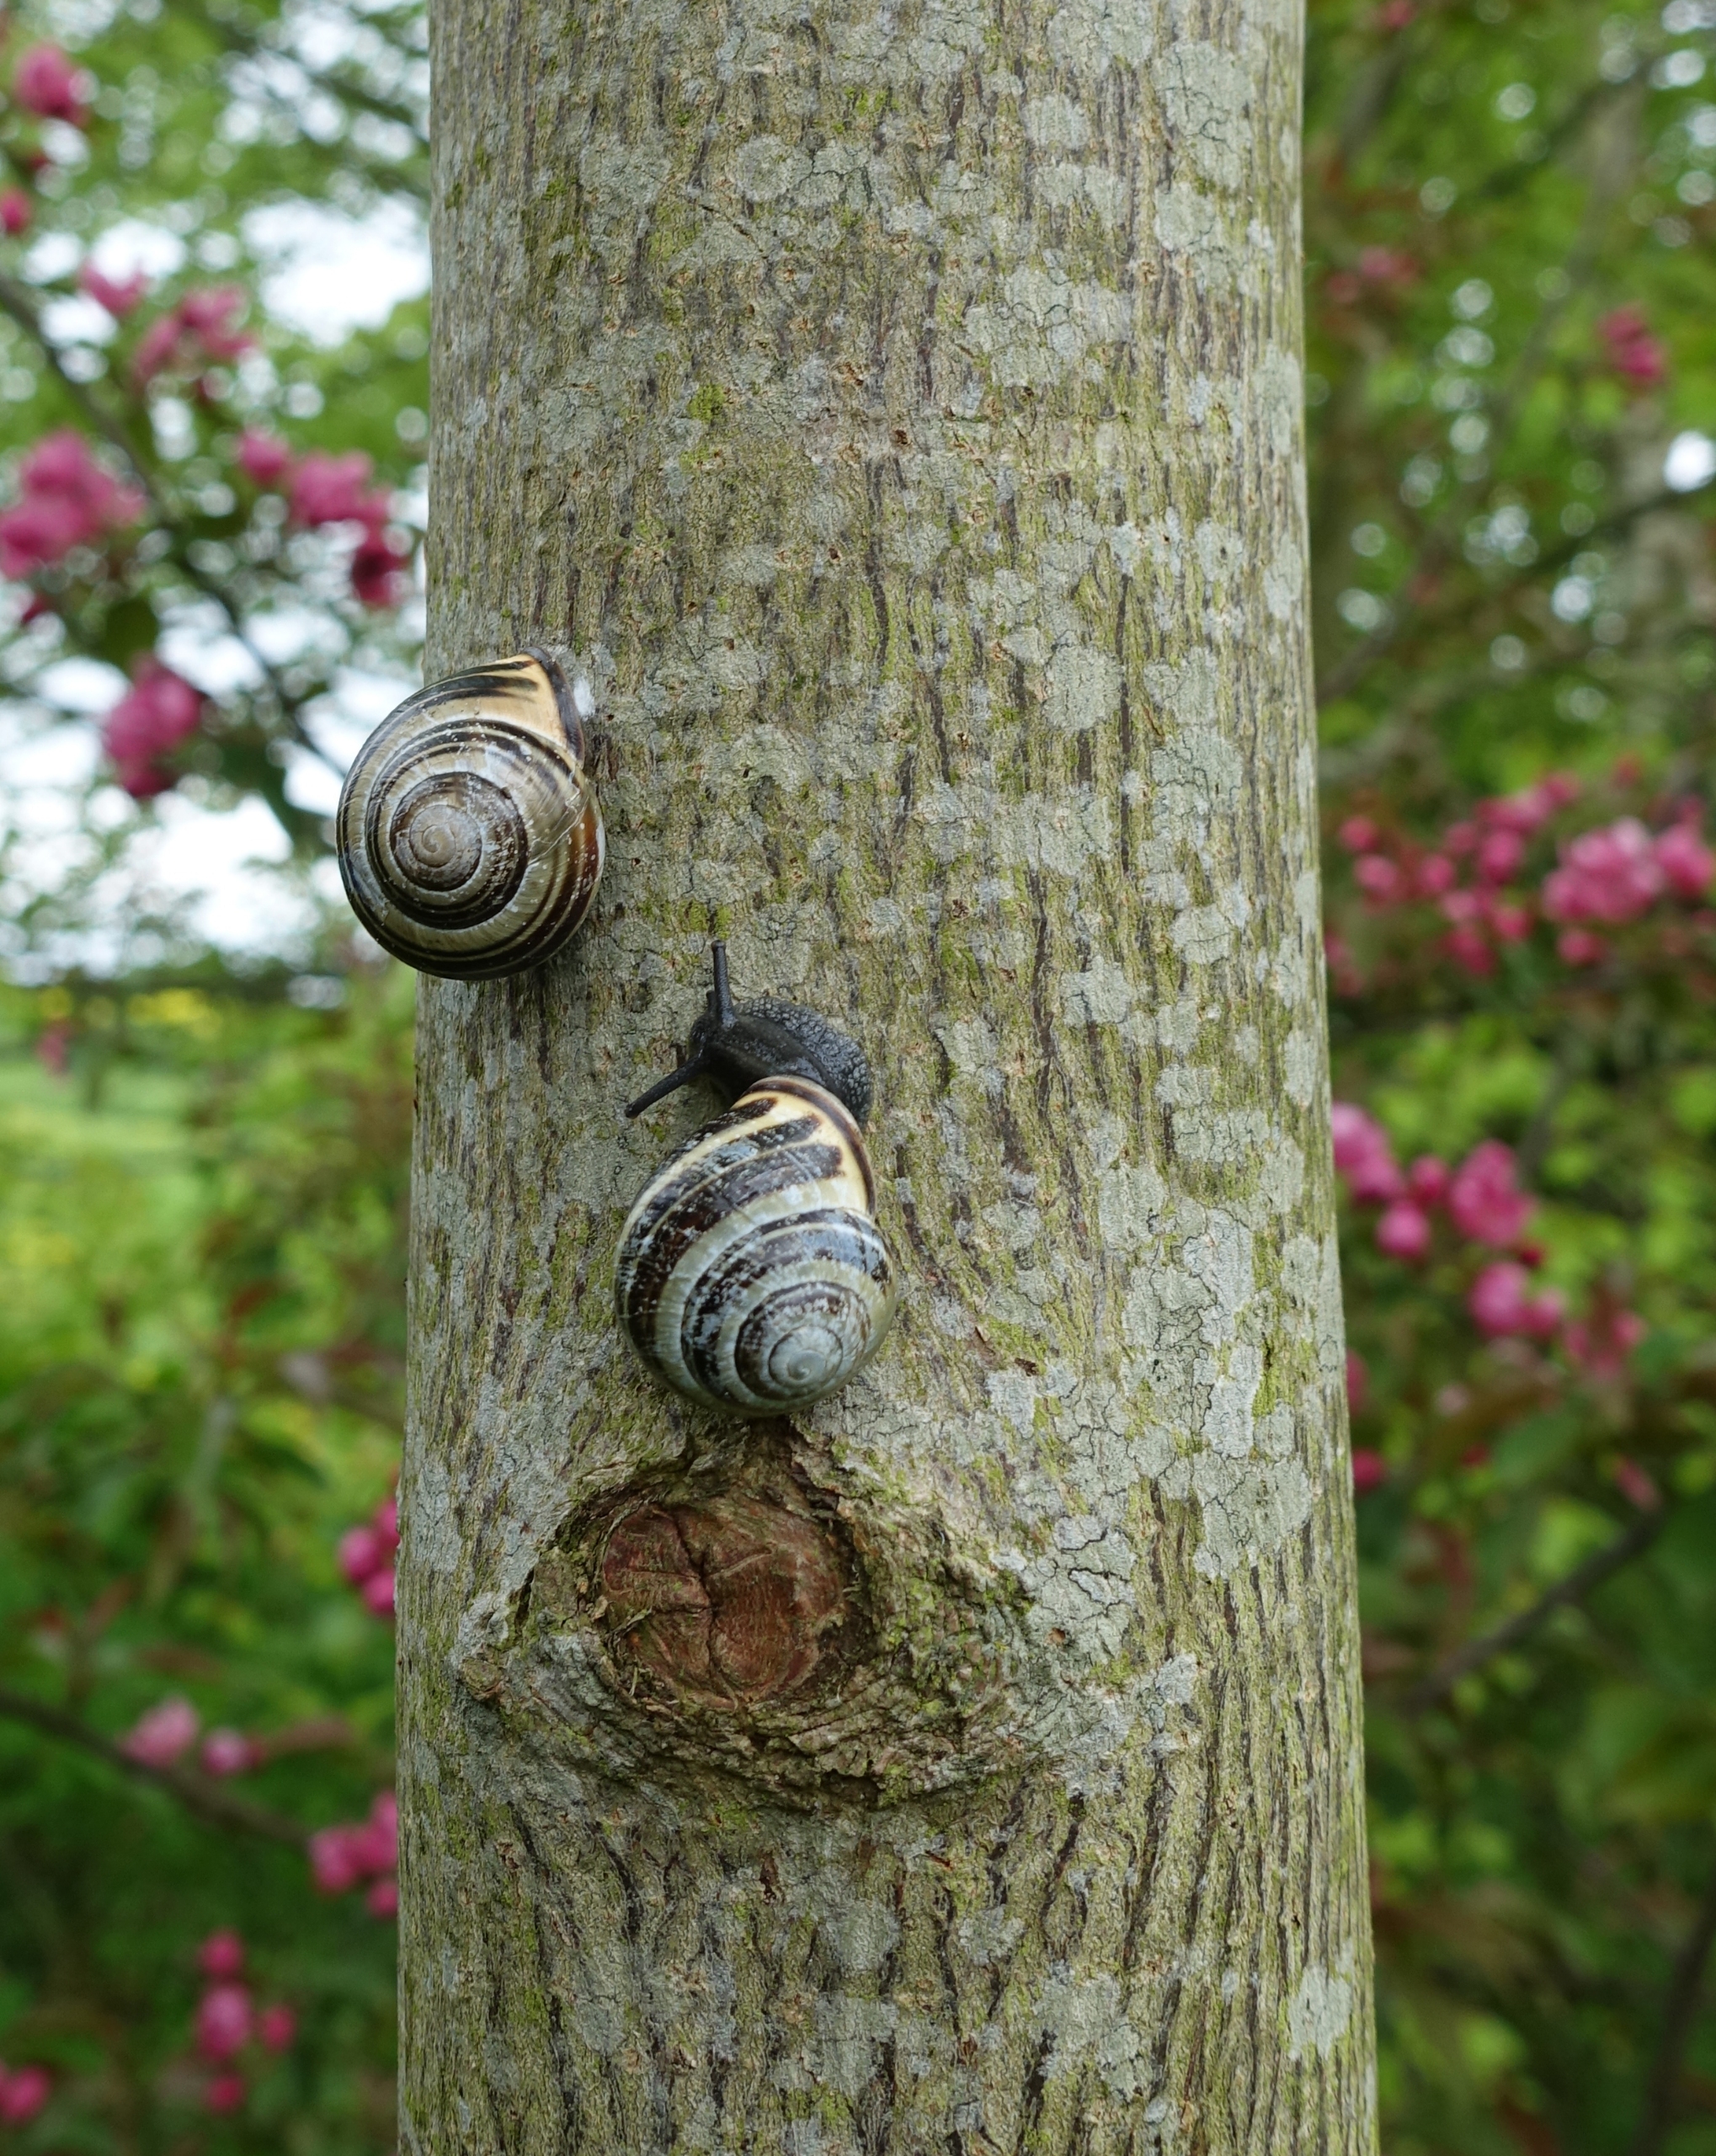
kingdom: Animalia
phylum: Mollusca
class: Gastropoda
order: Stylommatophora
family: Helicidae
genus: Cepaea
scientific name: Cepaea nemoralis
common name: Lundsnegl
